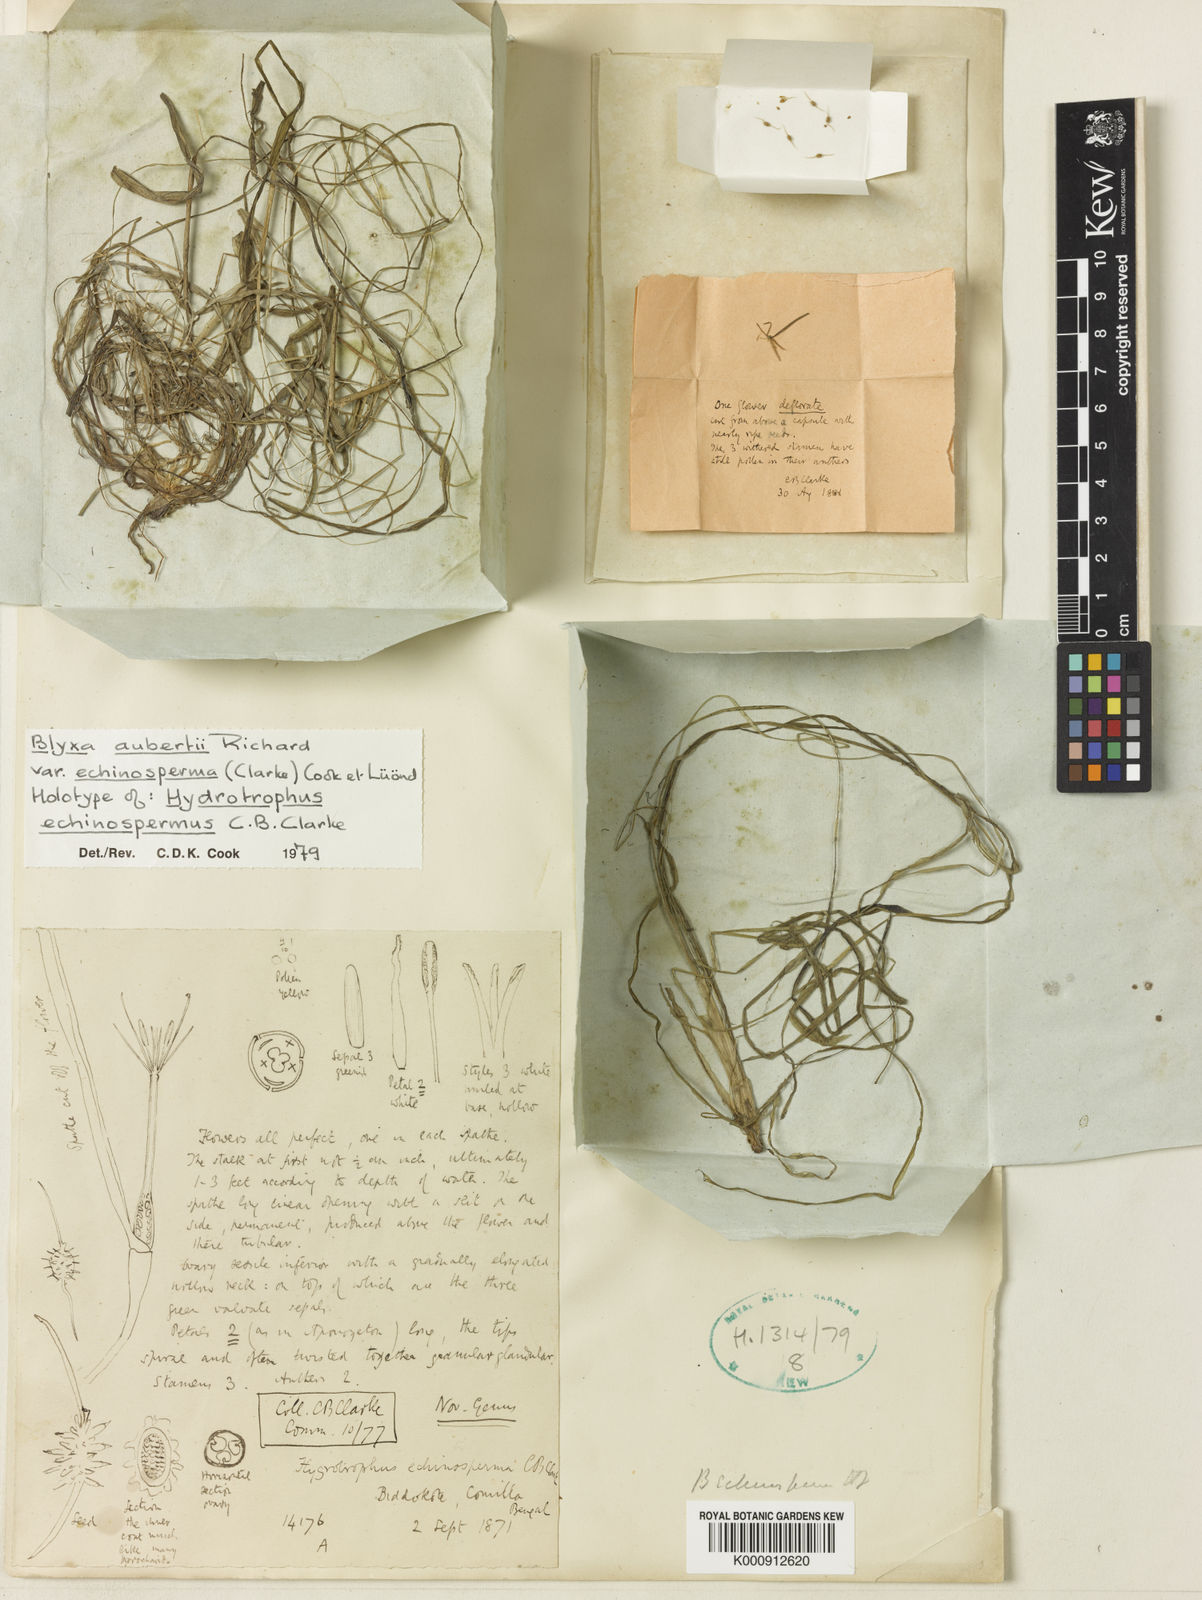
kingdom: Plantae
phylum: Tracheophyta
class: Liliopsida
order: Alismatales
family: Hydrocharitaceae
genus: Blyxa
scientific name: Blyxa echinosperma
